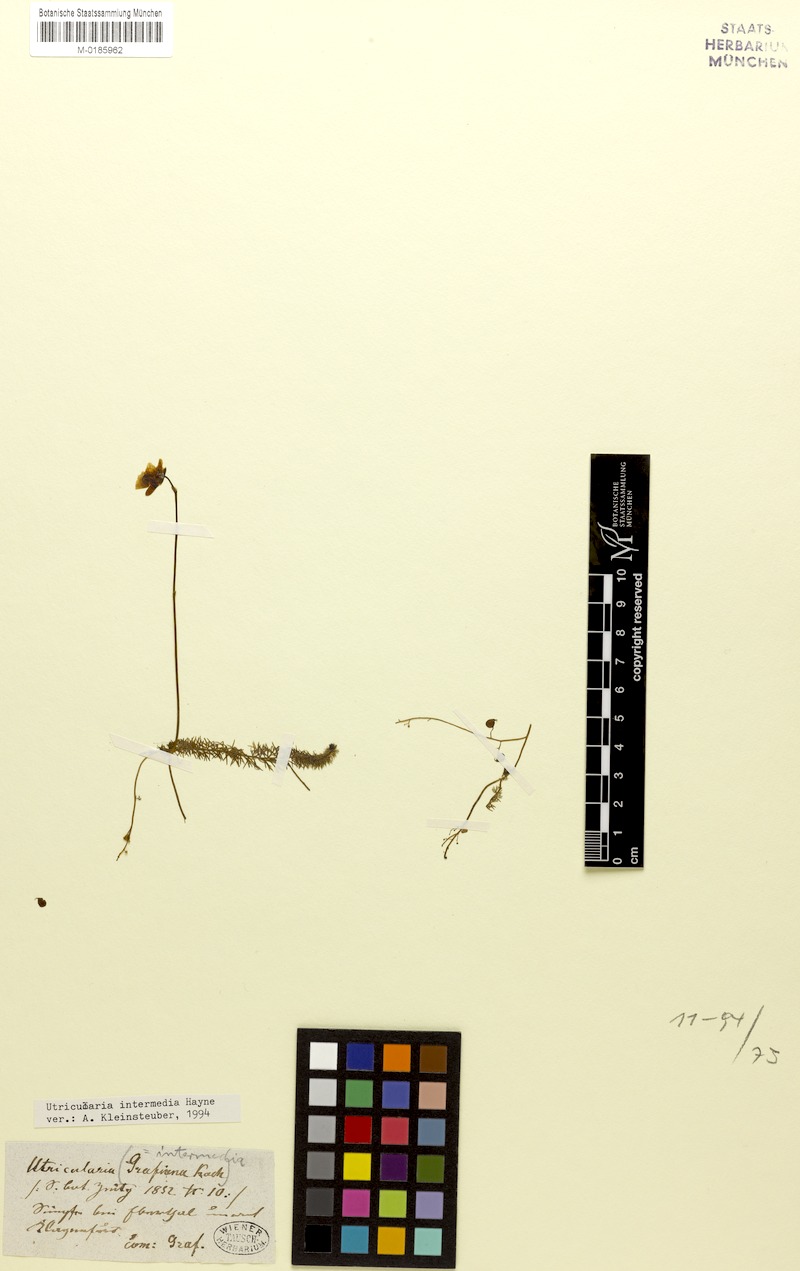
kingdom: Plantae
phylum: Tracheophyta
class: Magnoliopsida
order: Lamiales
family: Lentibulariaceae
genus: Utricularia
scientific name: Utricularia intermedia
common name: Intermediate bladderwort
